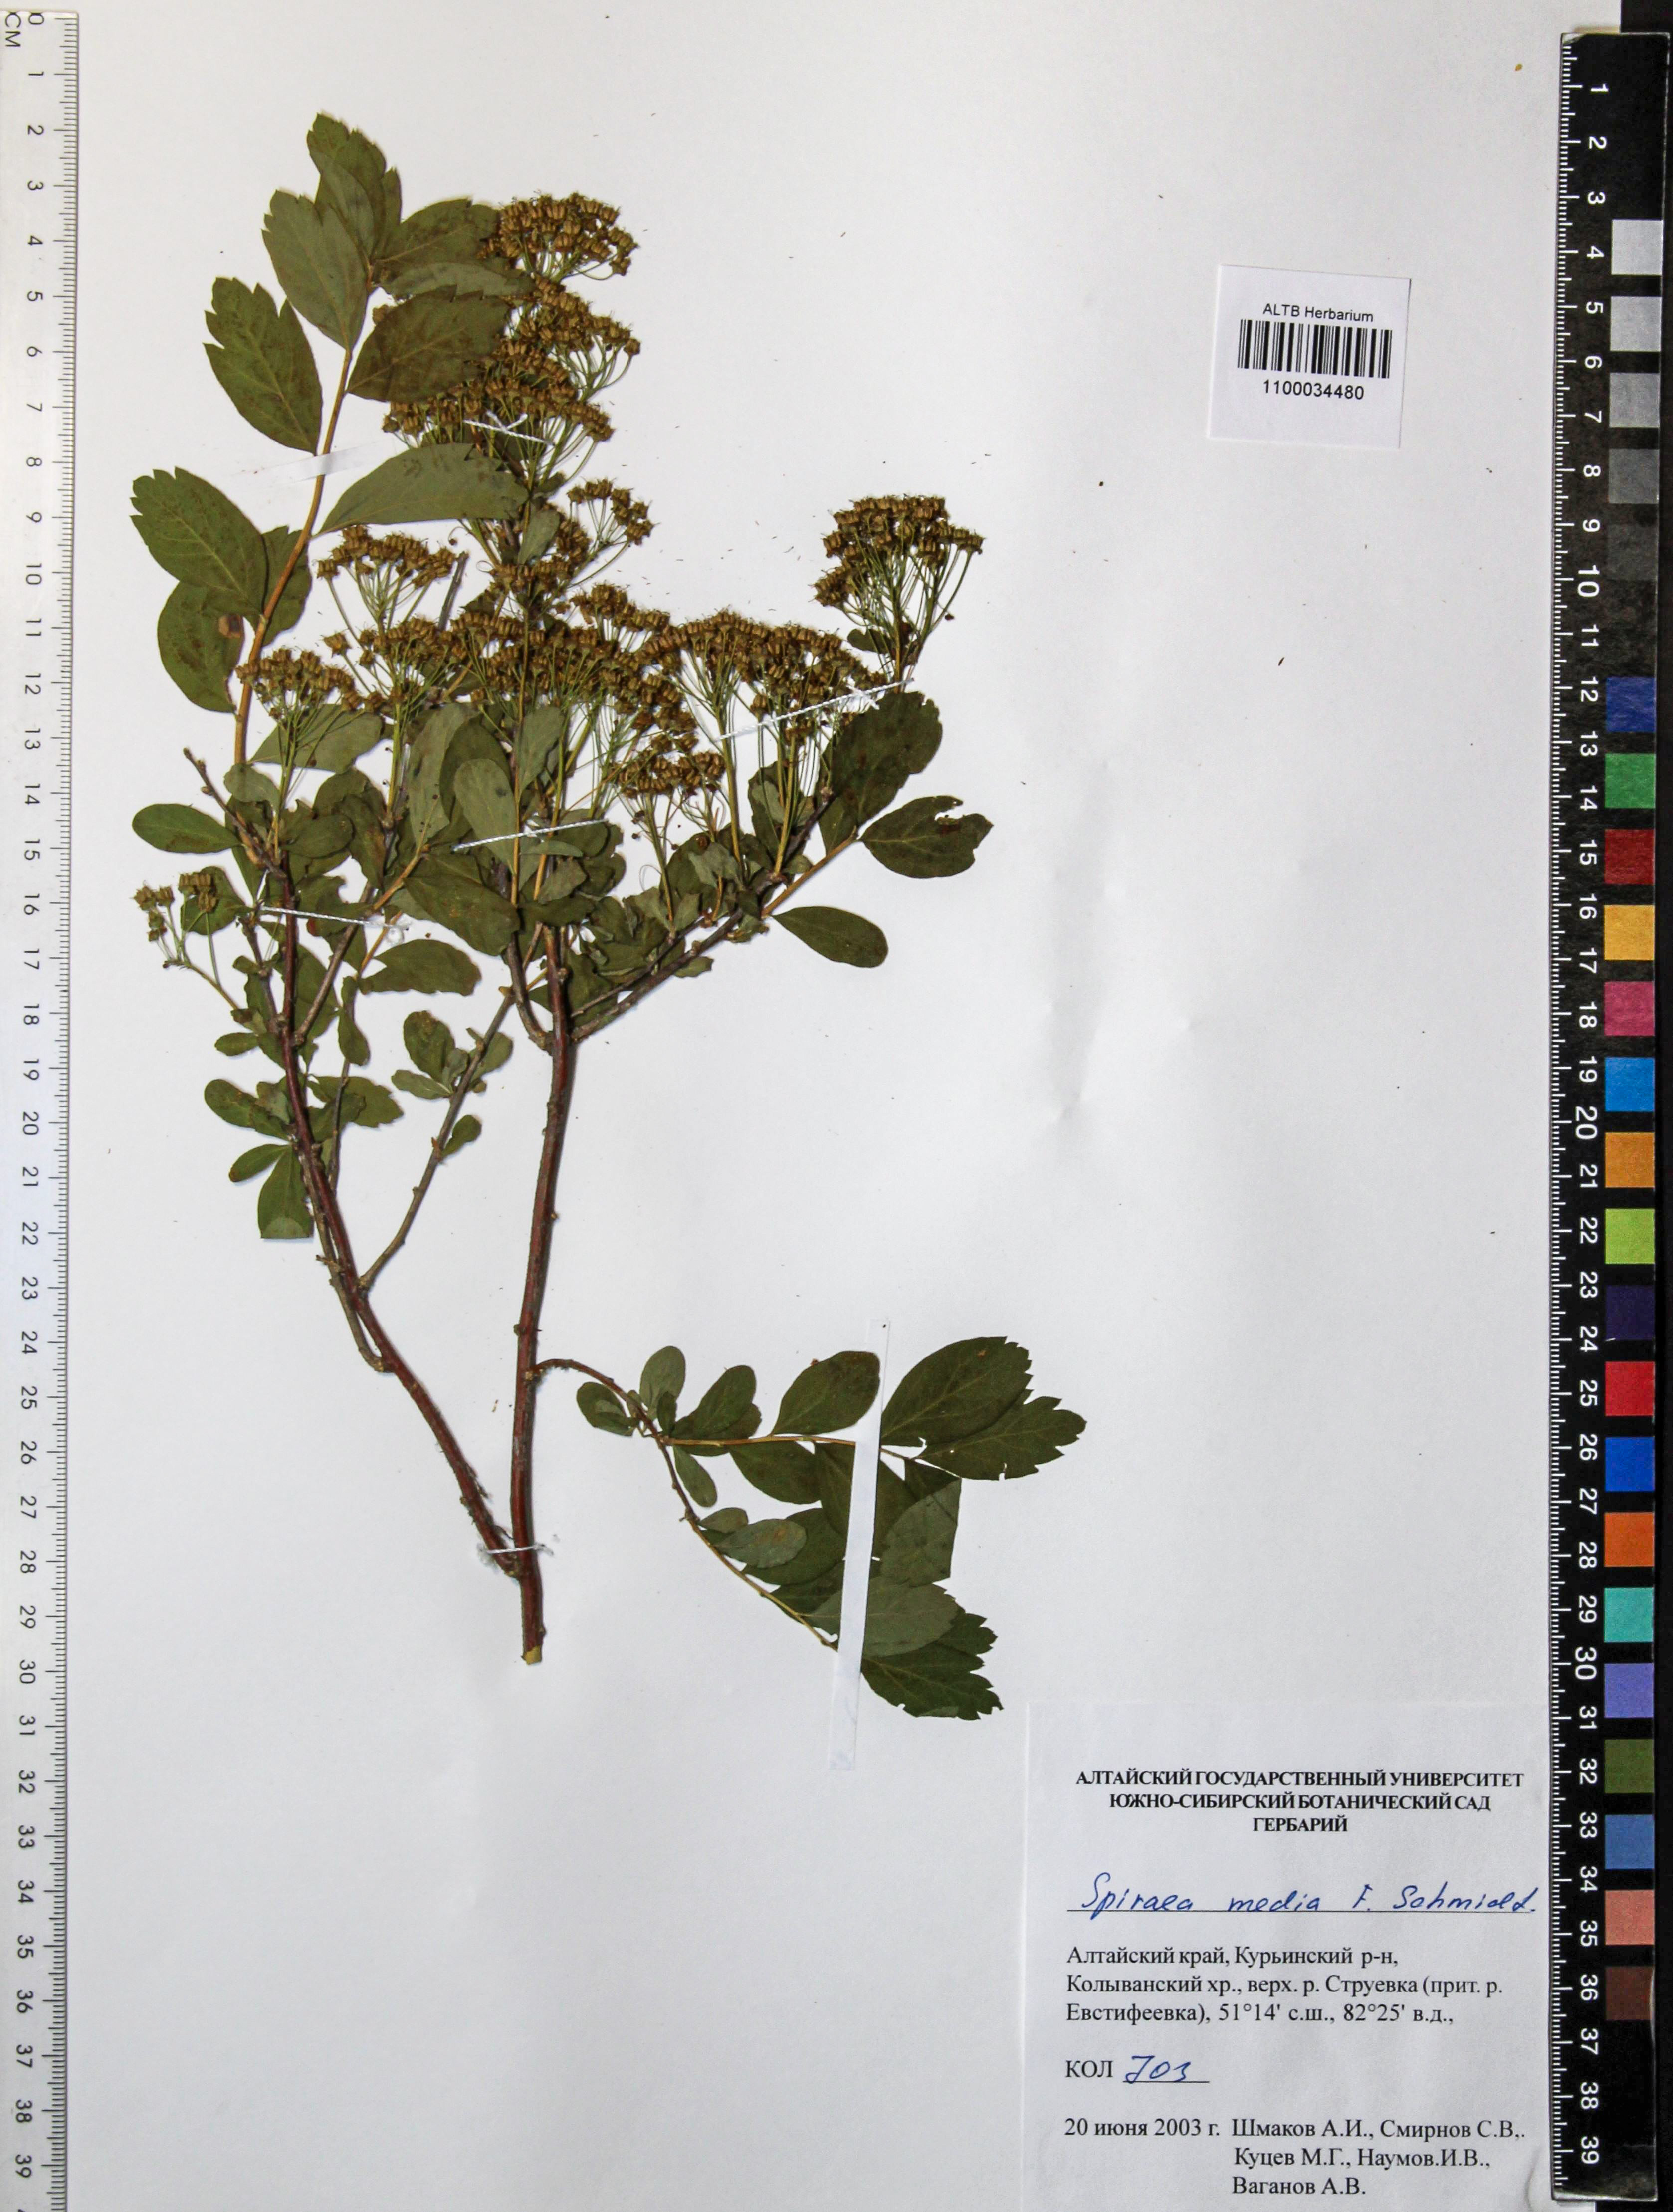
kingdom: Plantae
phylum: Tracheophyta
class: Magnoliopsida
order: Rosales
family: Rosaceae
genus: Spiraea
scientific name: Spiraea media
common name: Russian spiraea
